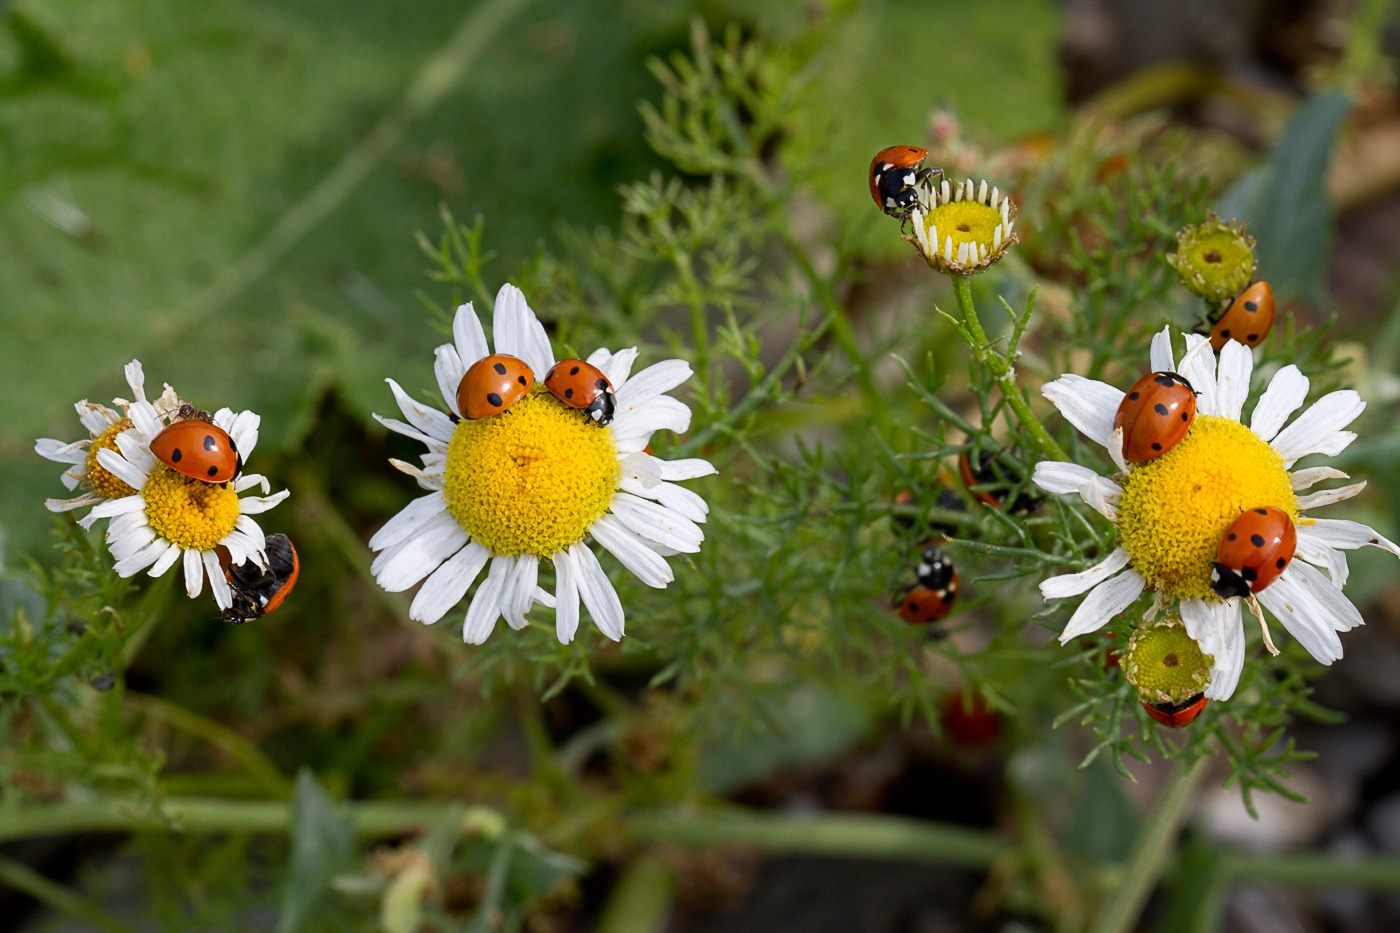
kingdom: Animalia
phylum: Arthropoda
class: Insecta
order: Coleoptera
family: Coccinellidae
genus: Coccinella
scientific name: Coccinella septempunctata
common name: Syvplettet mariehøne
